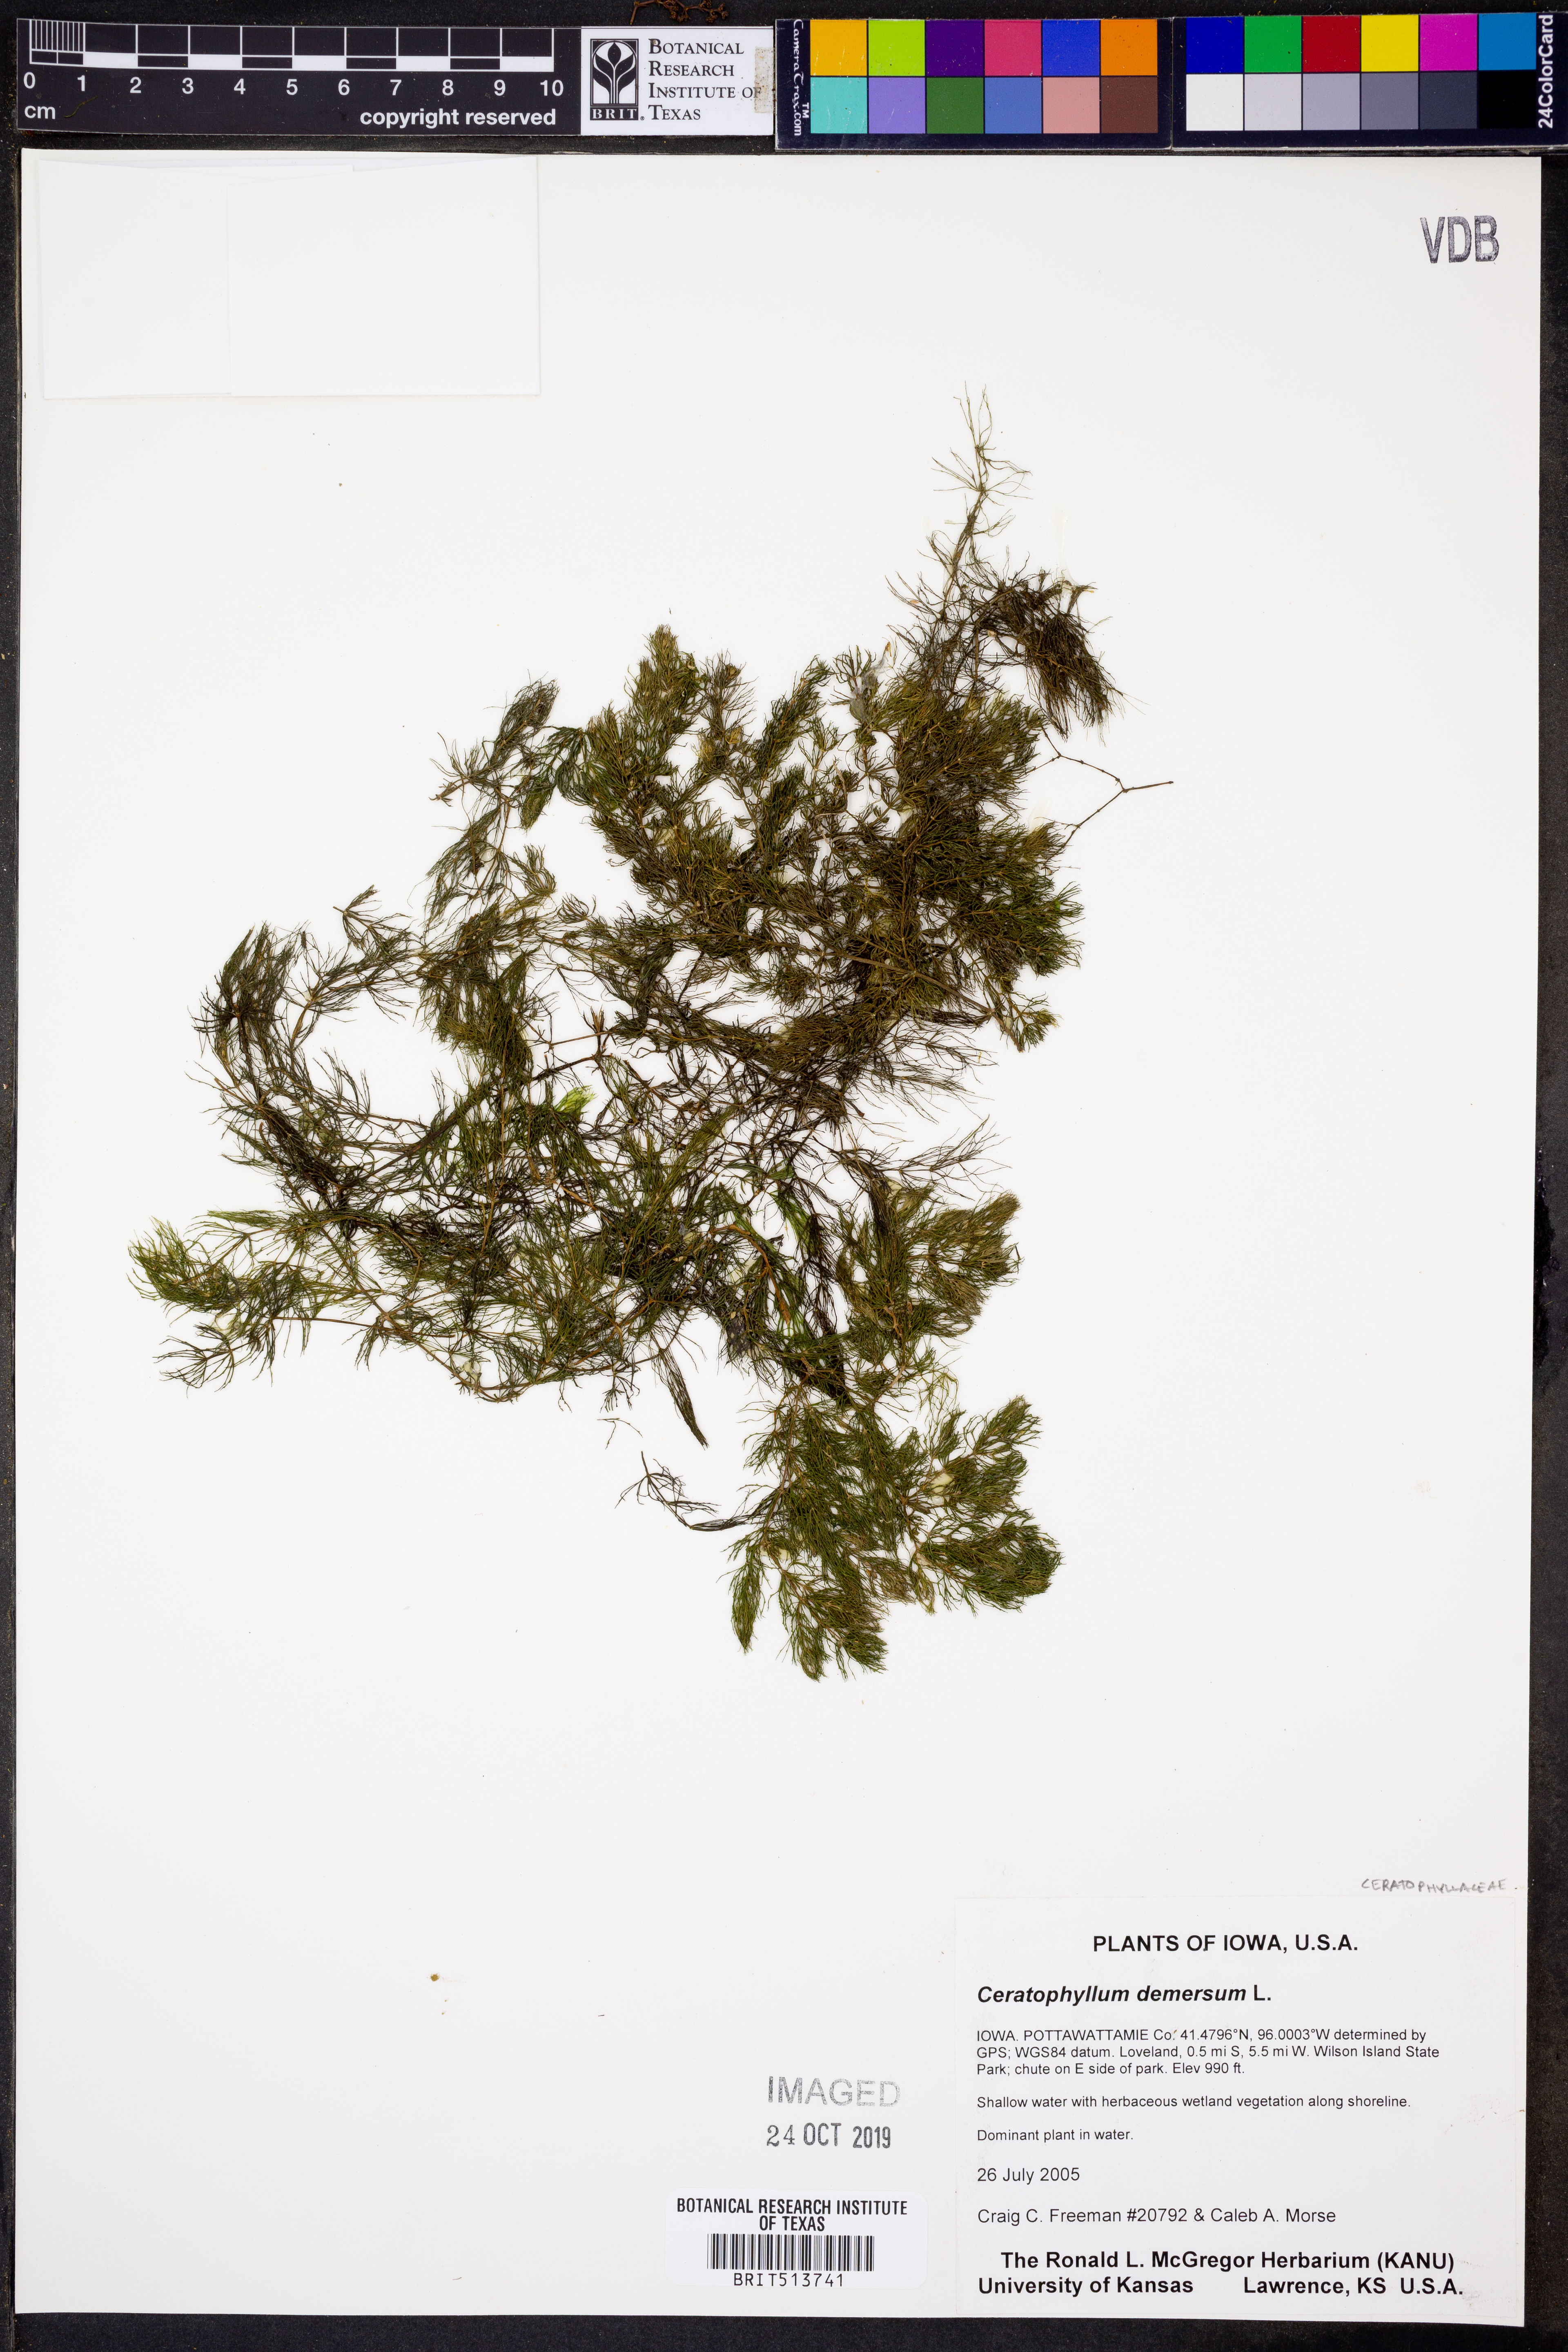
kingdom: Plantae
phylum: Tracheophyta
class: Magnoliopsida
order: Ceratophyllales
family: Ceratophyllaceae
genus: Ceratophyllum
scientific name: Ceratophyllum demersum
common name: Rigid hornwort
